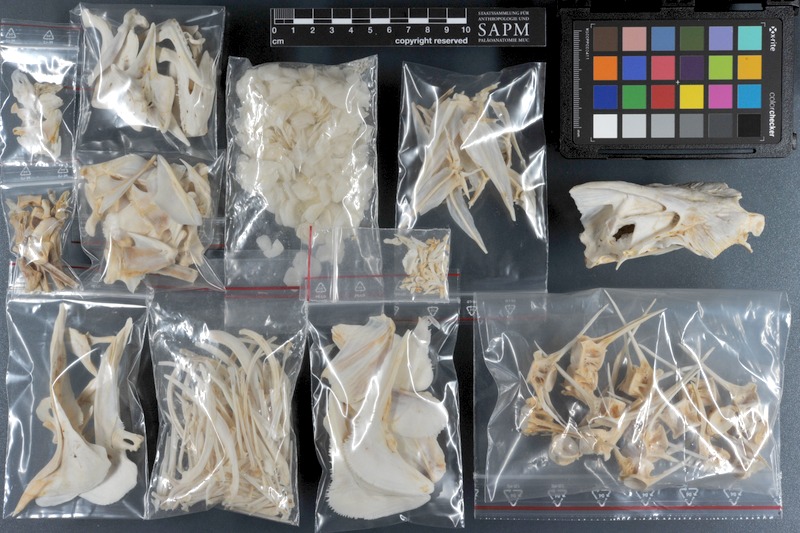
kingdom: Animalia
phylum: Chordata
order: Perciformes
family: Lobotidae
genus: Lobotes
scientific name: Lobotes surinamensis
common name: Atlantic tripletail
